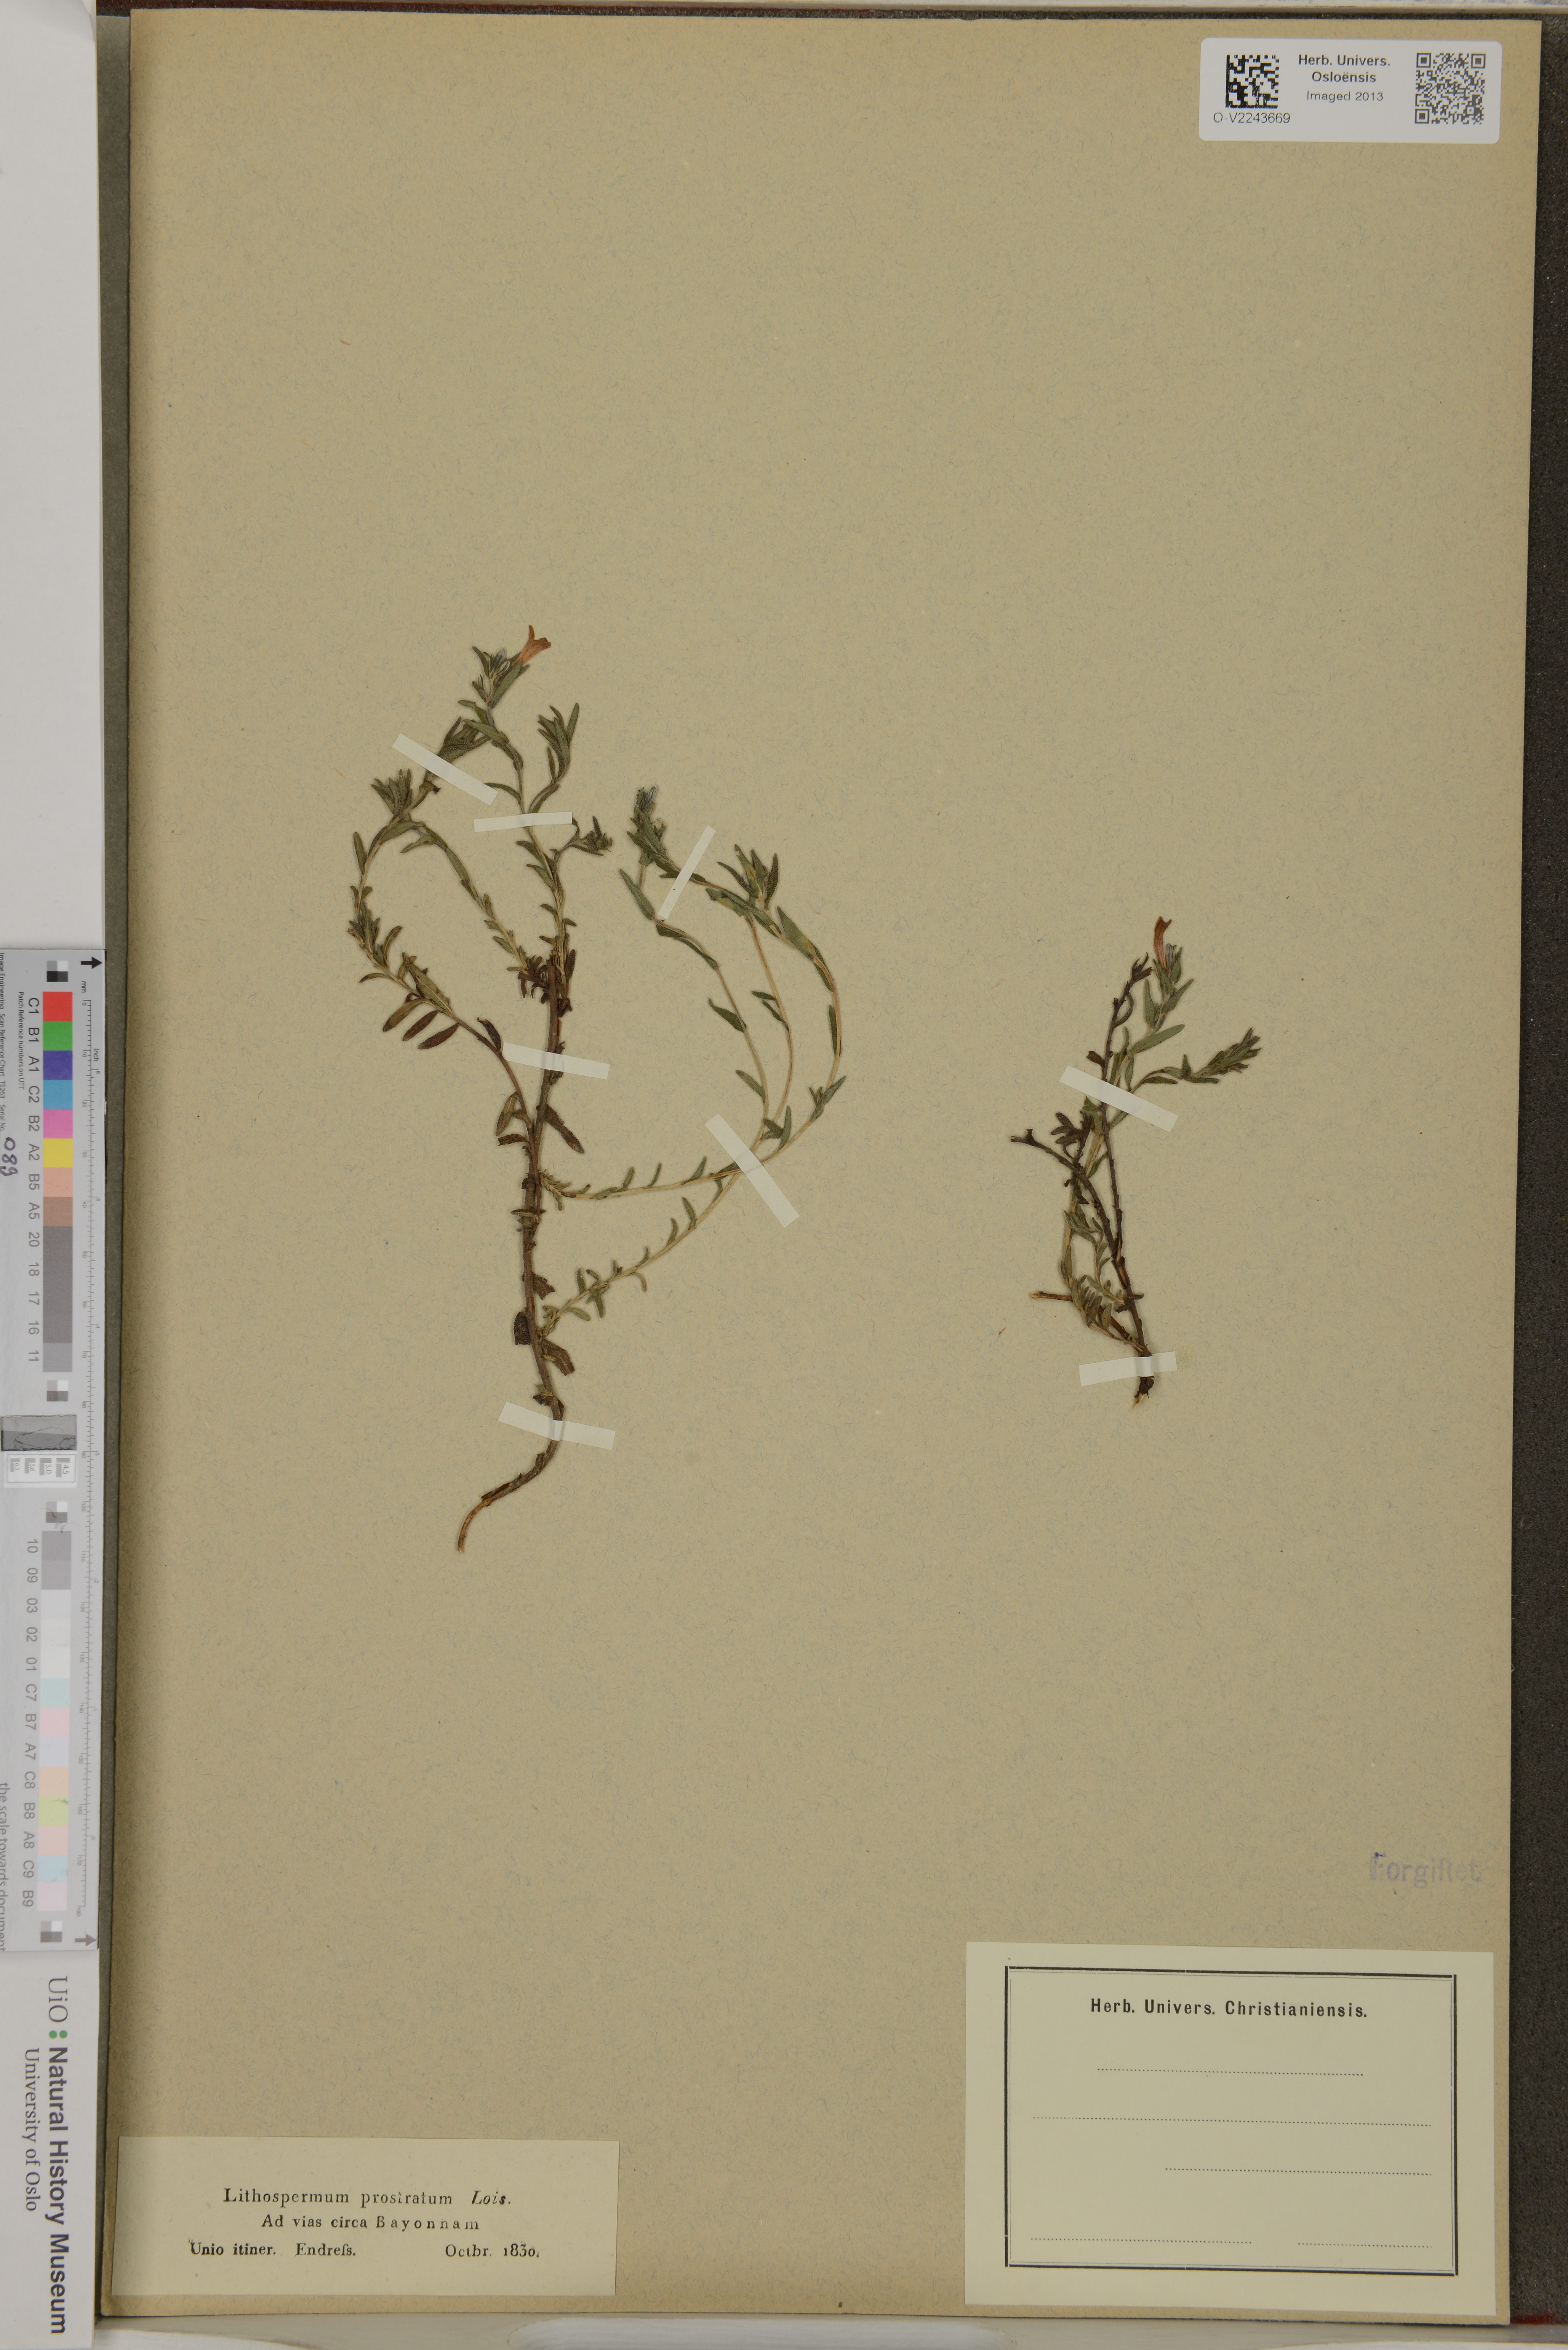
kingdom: Plantae
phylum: Tracheophyta
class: Magnoliopsida
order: Boraginales
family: Boraginaceae
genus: Lithospermum
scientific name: Lithospermum matamorense
